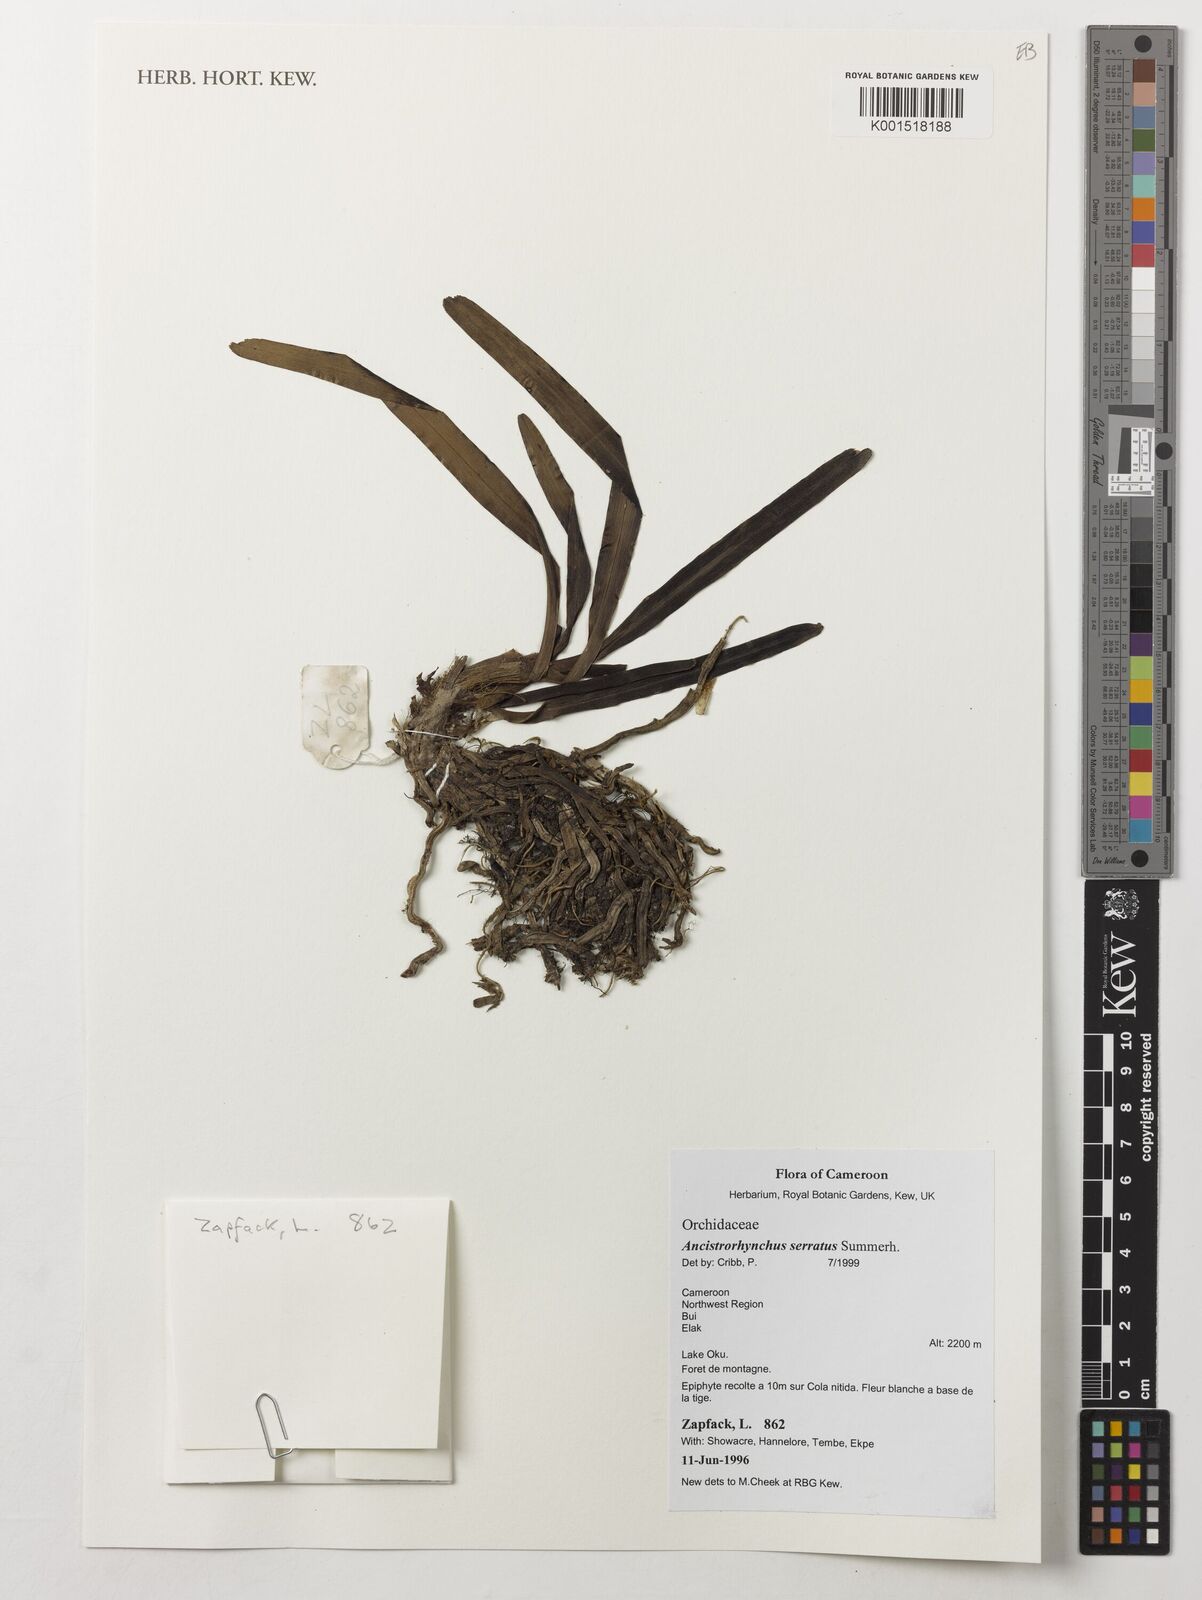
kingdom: Plantae
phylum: Tracheophyta
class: Liliopsida
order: Asparagales
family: Orchidaceae
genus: Ancistrorhynchus
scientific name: Ancistrorhynchus serratus
